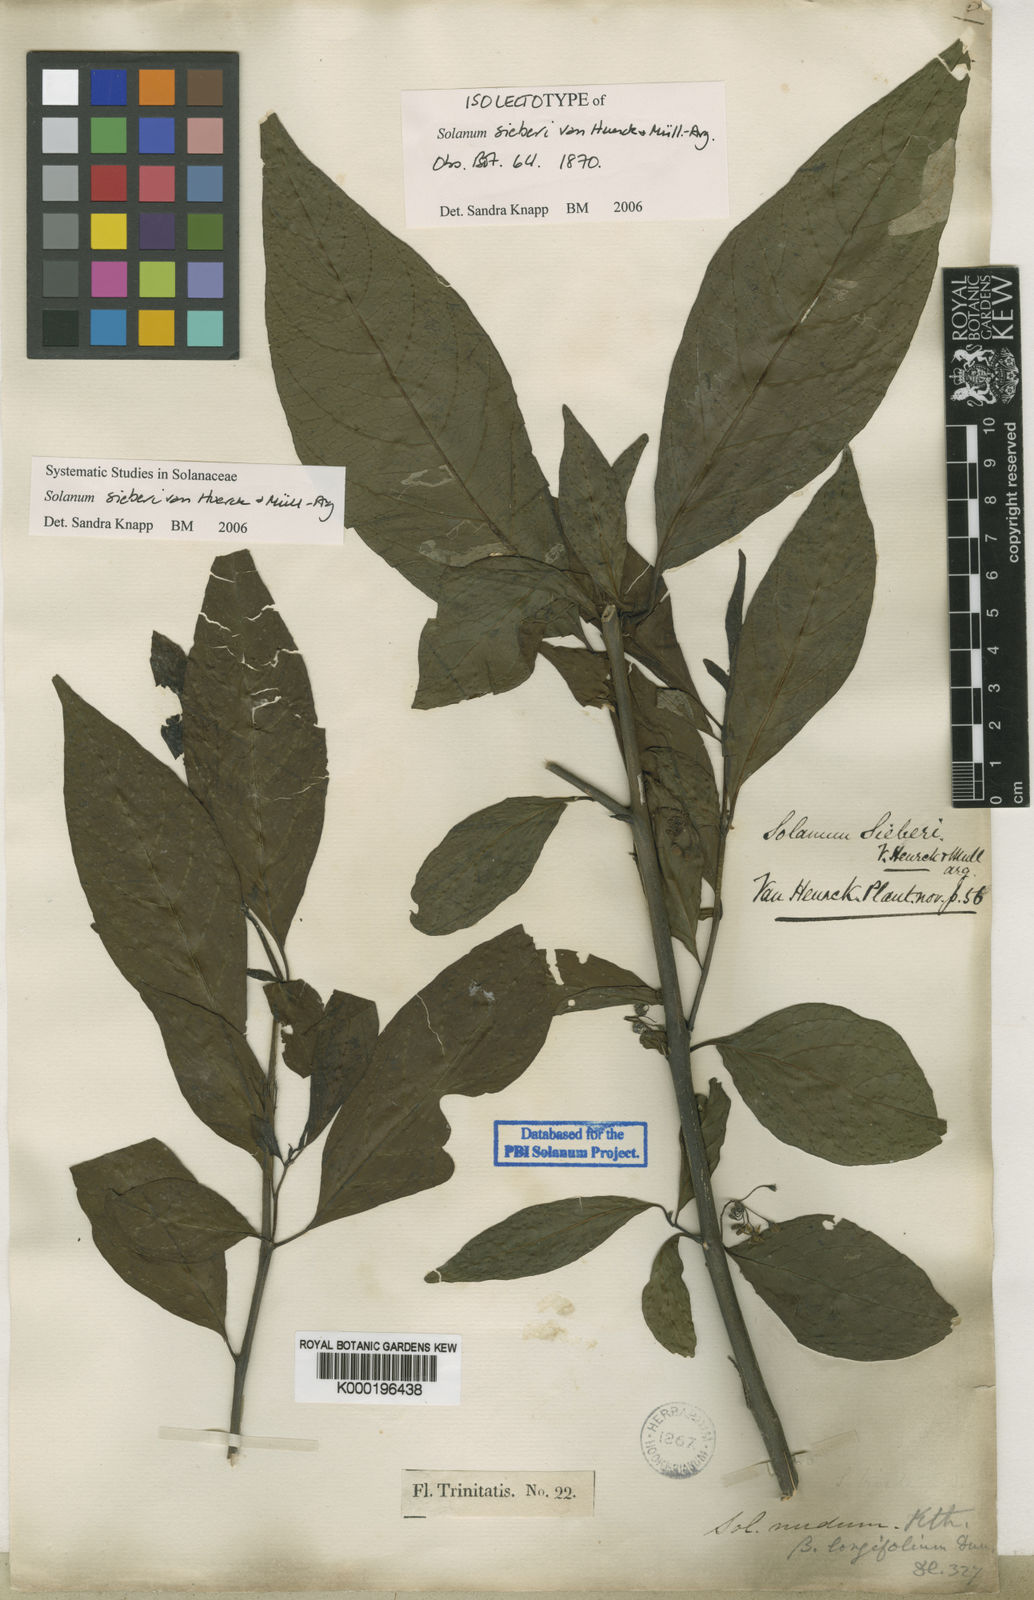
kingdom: Plantae
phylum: Tracheophyta
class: Magnoliopsida
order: Solanales
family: Solanaceae
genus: Solanum
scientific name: Solanum
